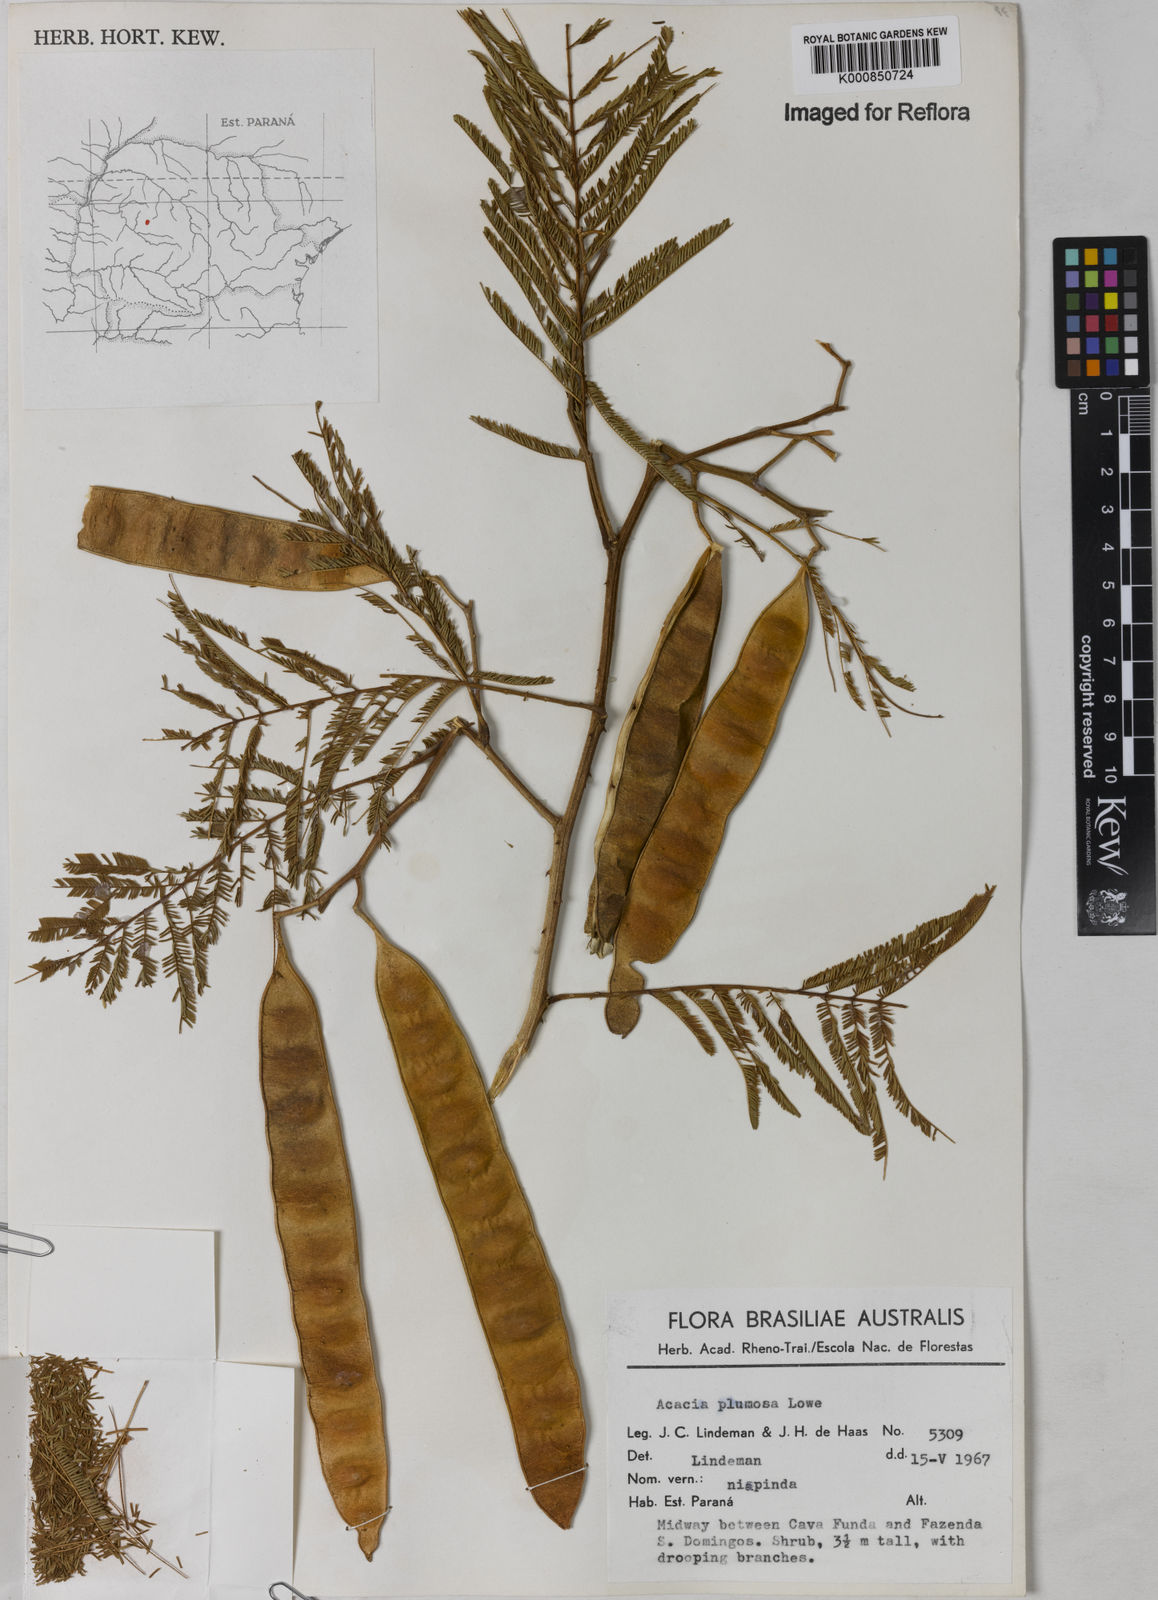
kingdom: Plantae
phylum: Tracheophyta
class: Magnoliopsida
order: Fabales
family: Fabaceae
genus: Senegalia
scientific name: Senegalia lowei
